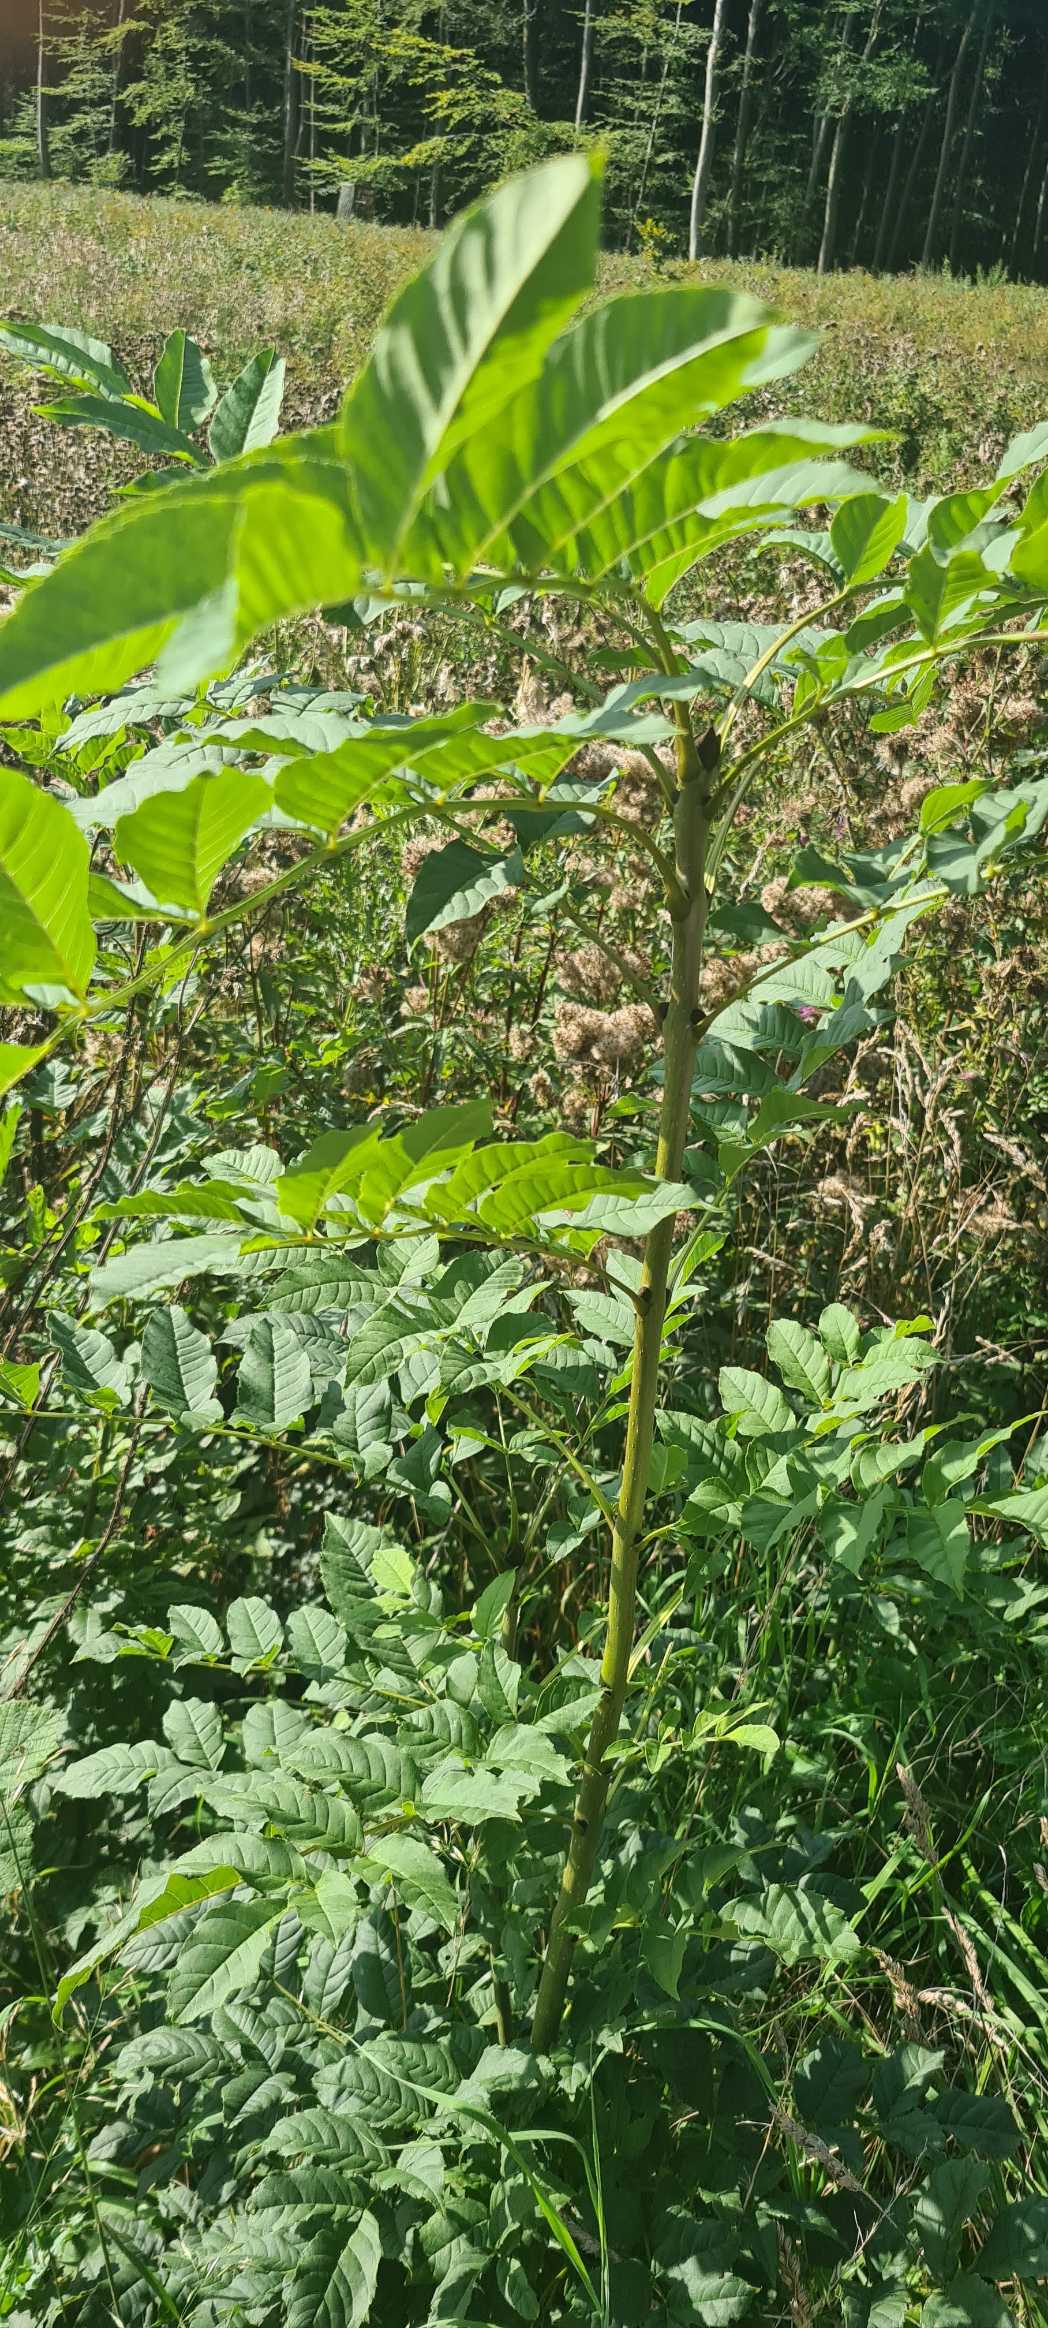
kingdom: Plantae
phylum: Tracheophyta
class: Magnoliopsida
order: Lamiales
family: Oleaceae
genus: Fraxinus
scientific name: Fraxinus excelsior
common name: Ask
